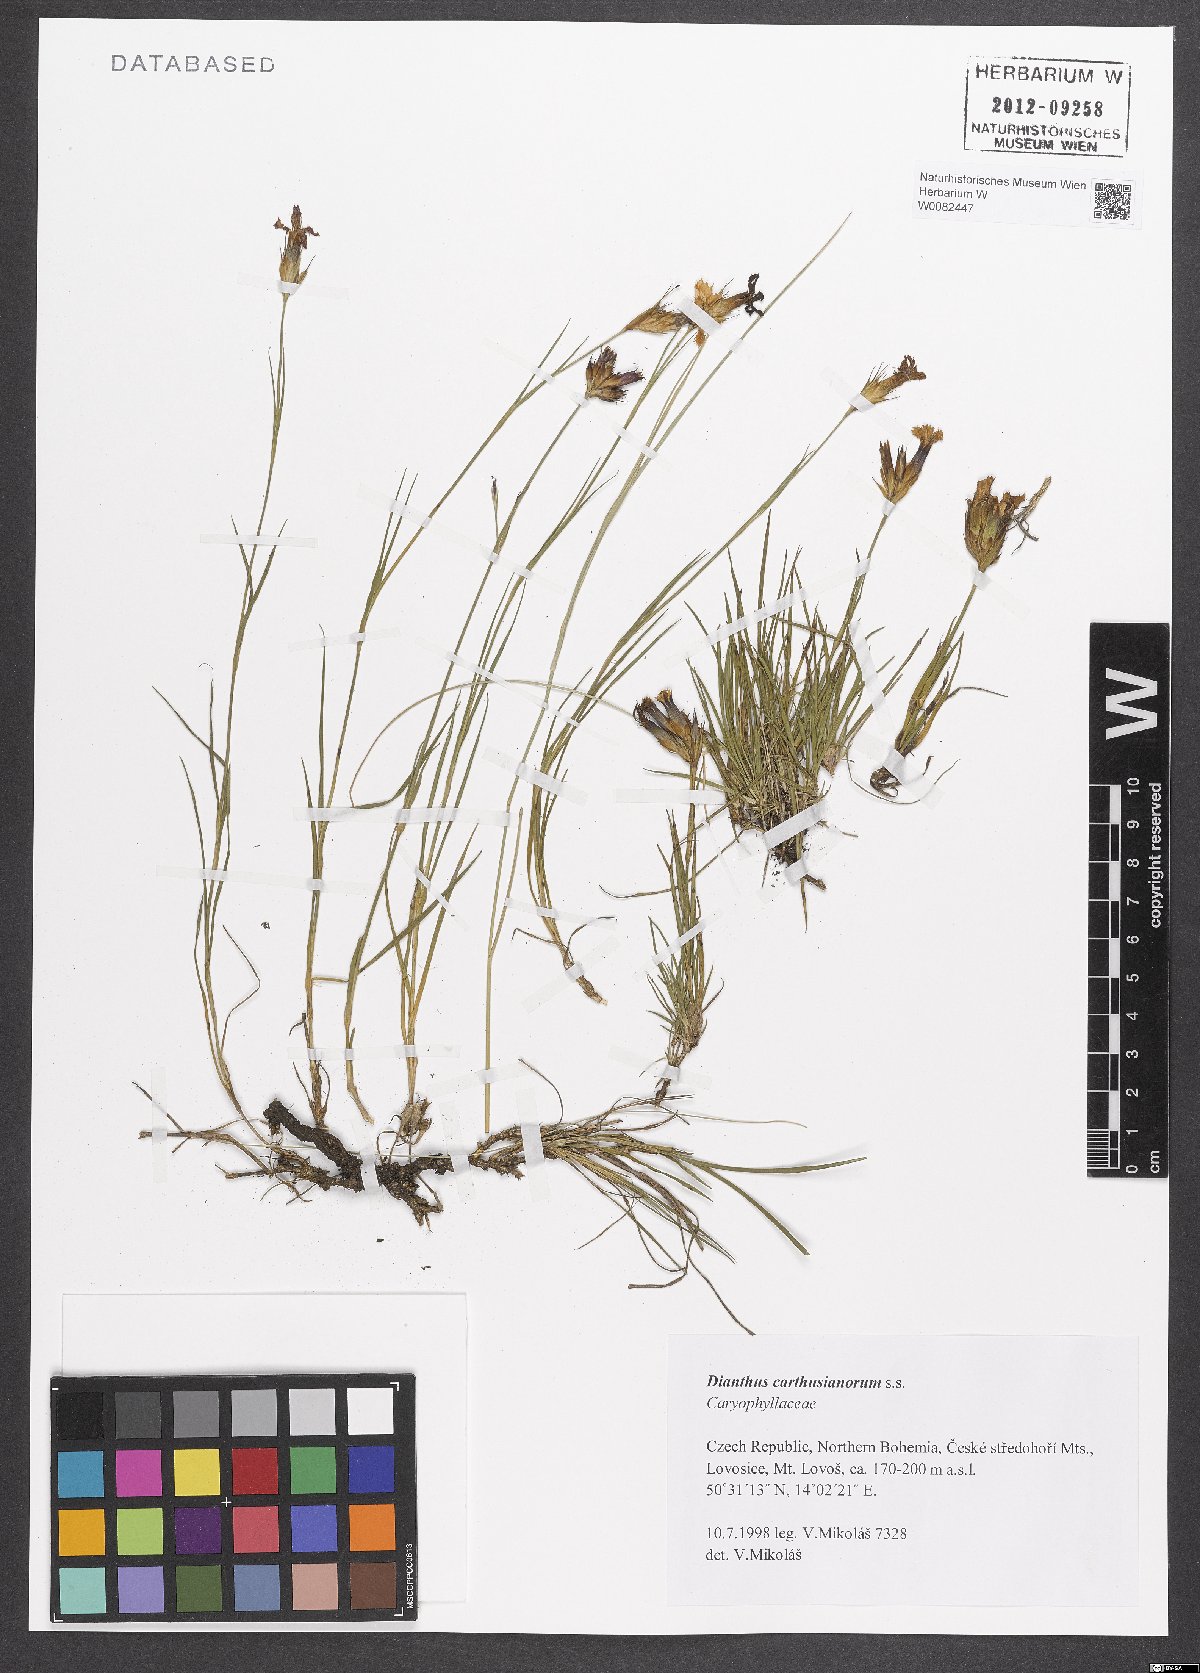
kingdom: Plantae
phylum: Tracheophyta
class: Magnoliopsida
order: Caryophyllales
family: Caryophyllaceae
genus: Dianthus
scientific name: Dianthus carthusianorum
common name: Carthusian pink
